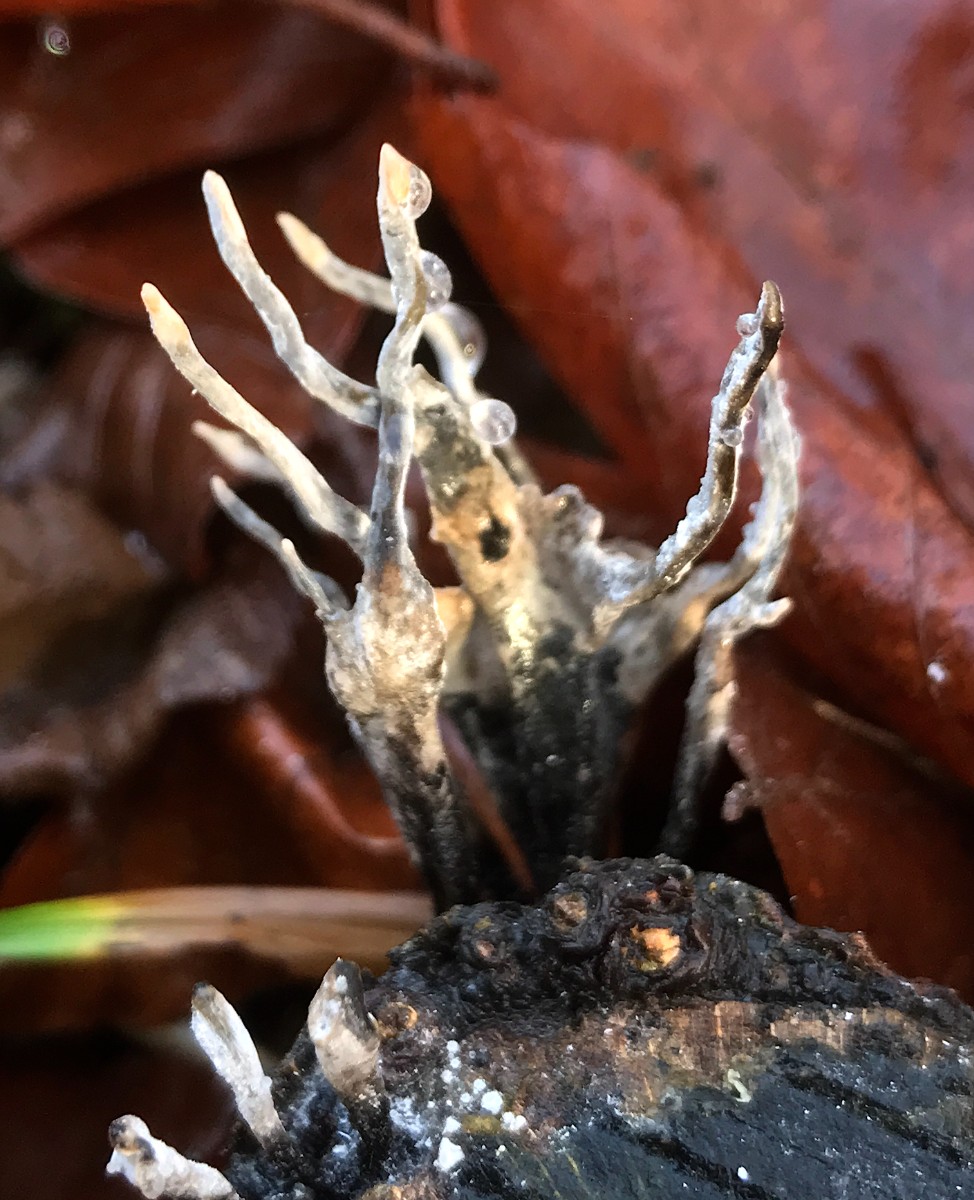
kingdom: Fungi
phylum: Ascomycota
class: Sordariomycetes
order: Xylariales
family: Xylariaceae
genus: Xylaria
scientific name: Xylaria hypoxylon
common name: grenet stødsvamp
